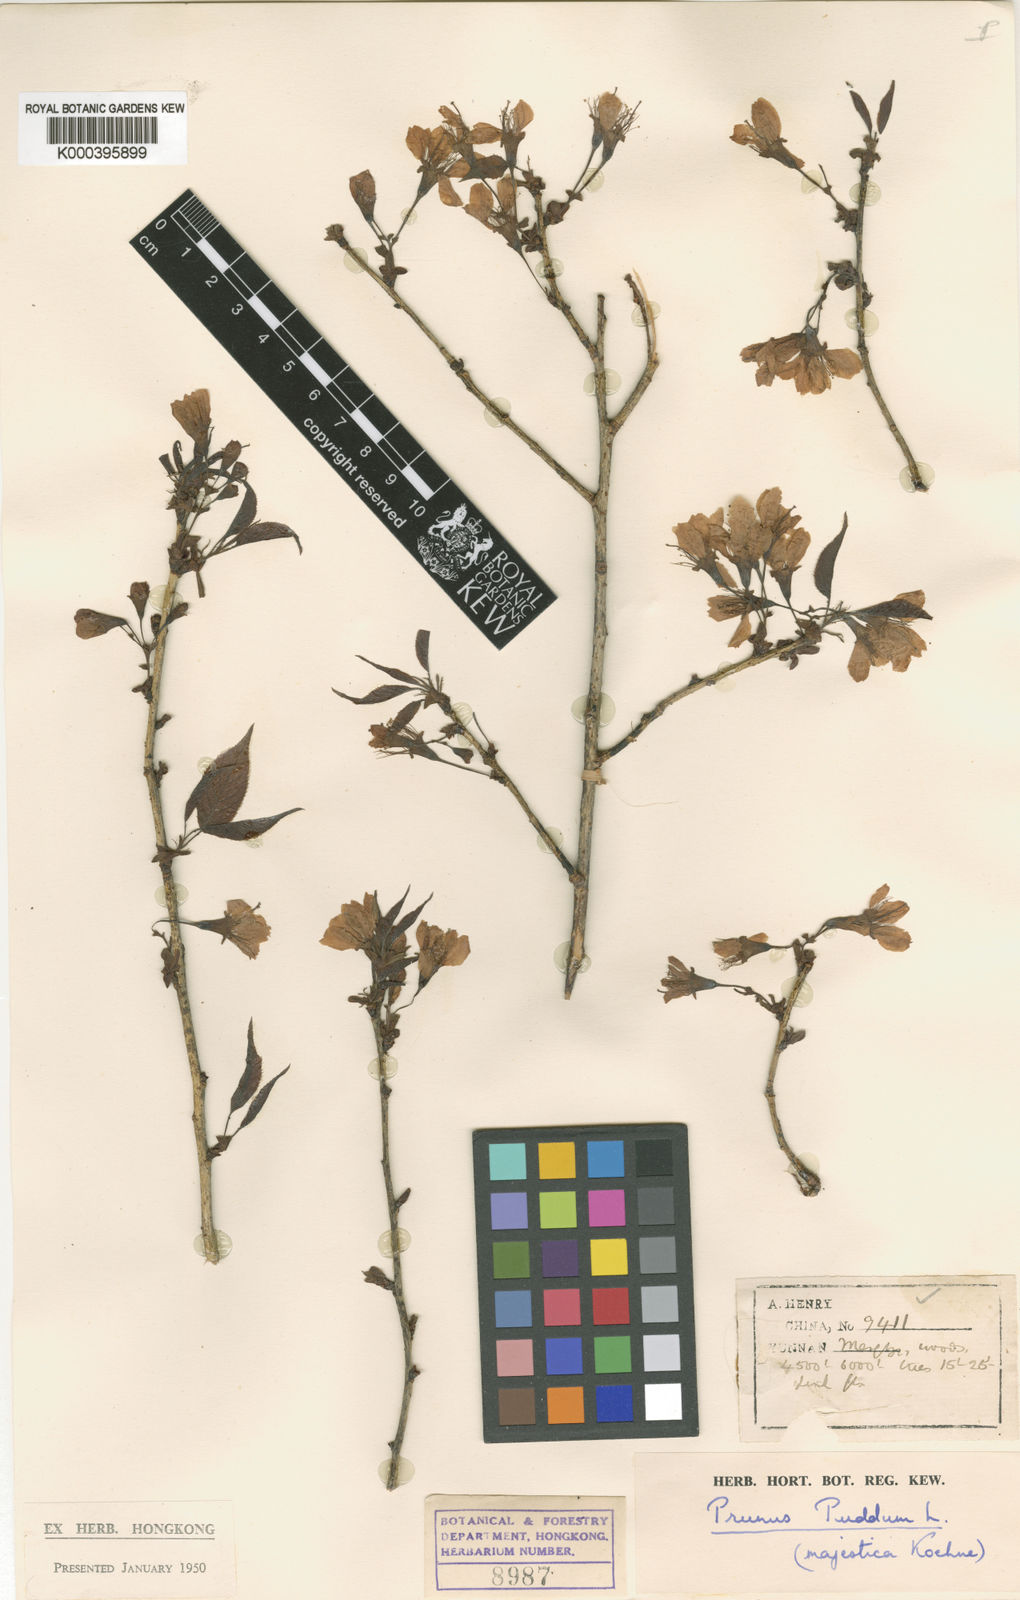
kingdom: Plantae
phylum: Tracheophyta
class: Magnoliopsida
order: Rosales
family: Rosaceae
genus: Prunus
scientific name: Prunus cerasoides
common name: Wild himalayan cherry
